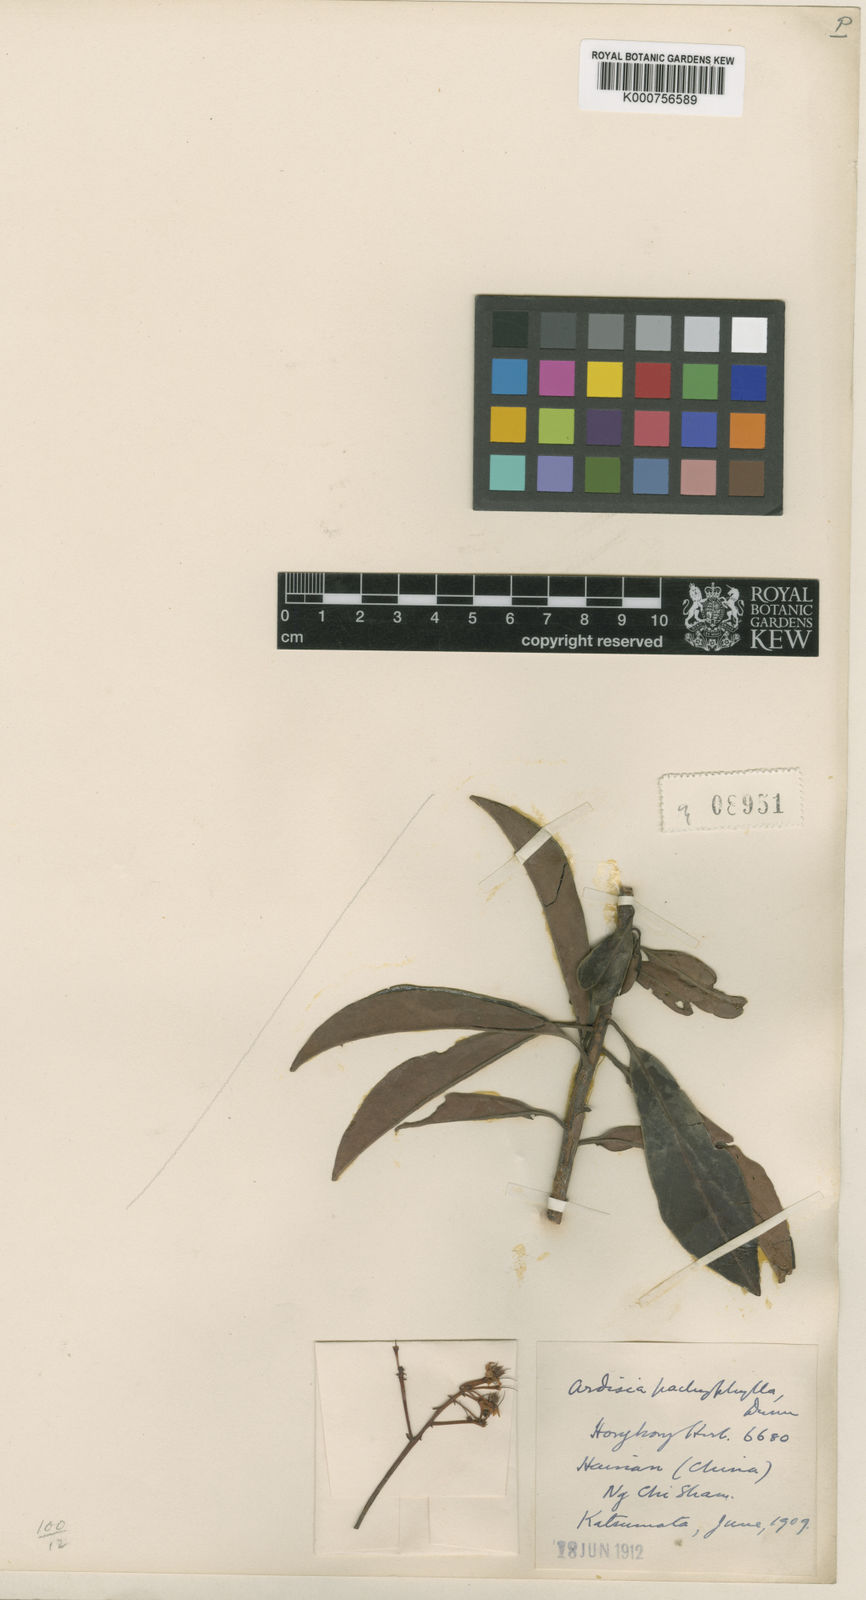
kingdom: Plantae
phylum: Tracheophyta
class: Magnoliopsida
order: Ericales
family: Primulaceae
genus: Ardisia
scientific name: Ardisia obtusa
